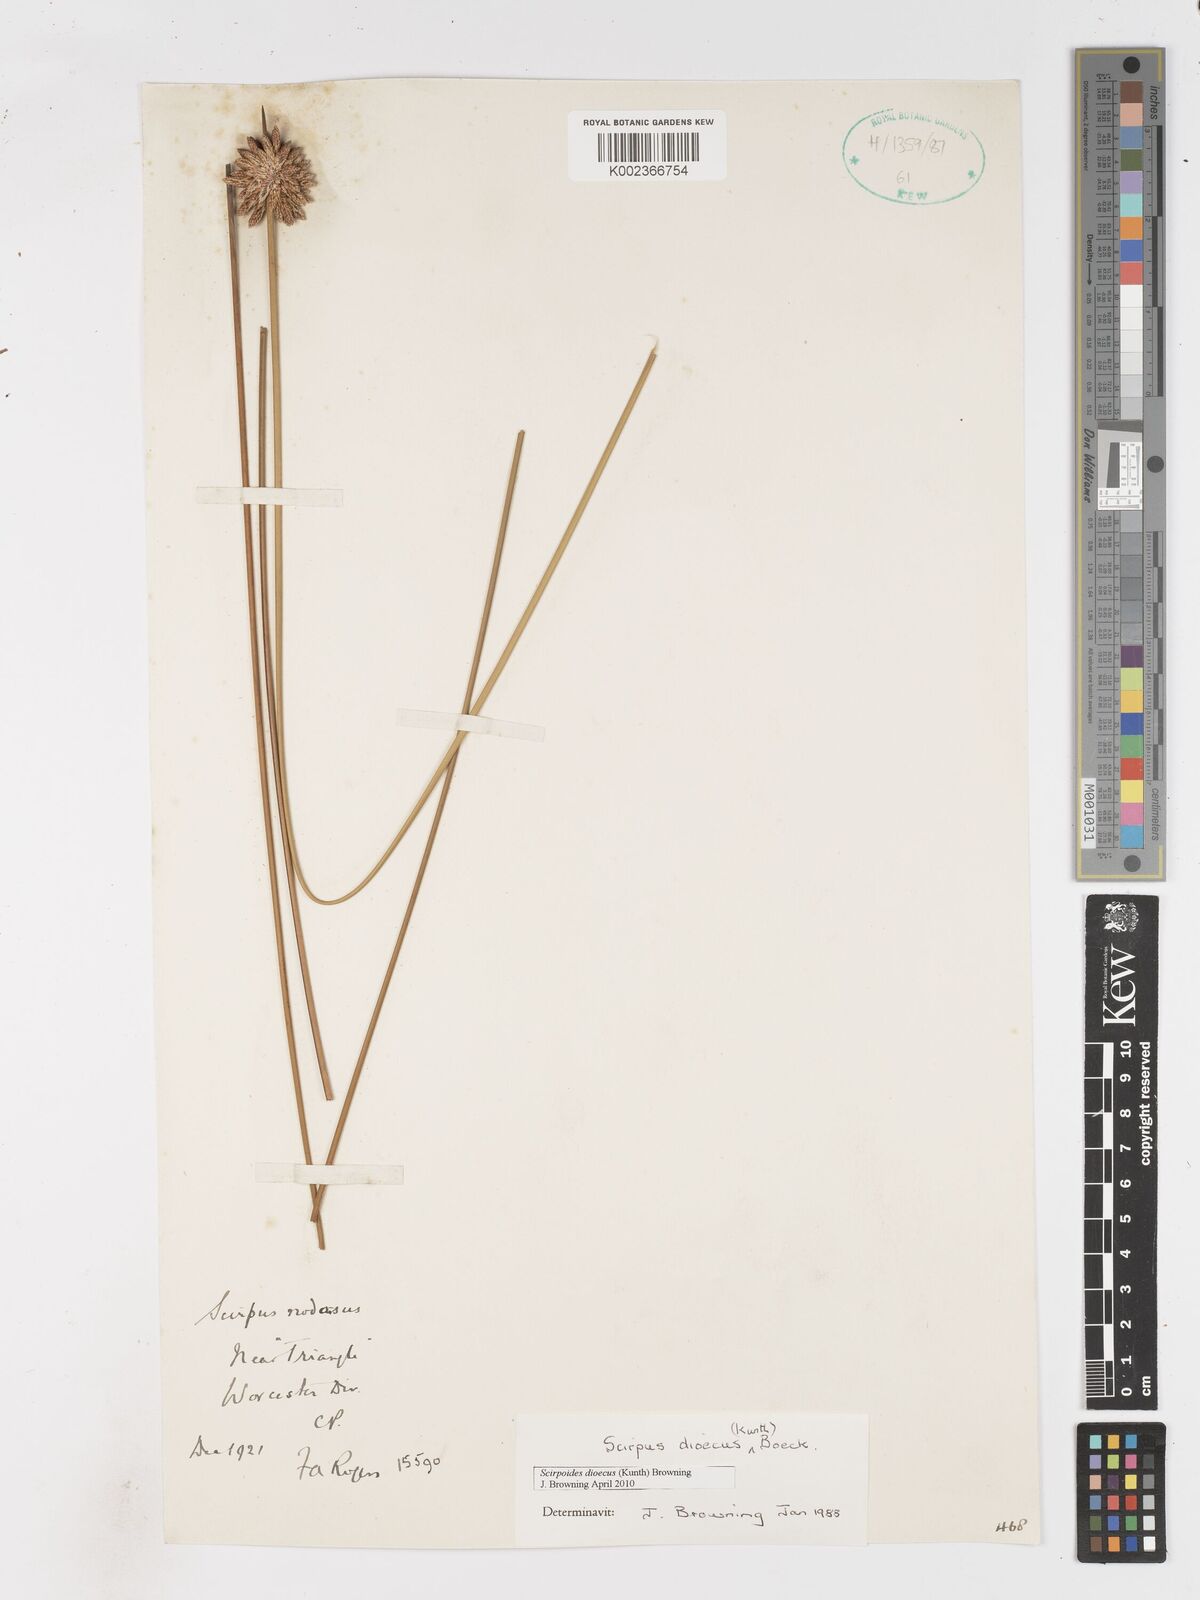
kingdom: Plantae
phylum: Tracheophyta
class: Liliopsida
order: Poales
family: Cyperaceae
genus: Afroscirpoides
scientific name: Afroscirpoides dioeca
